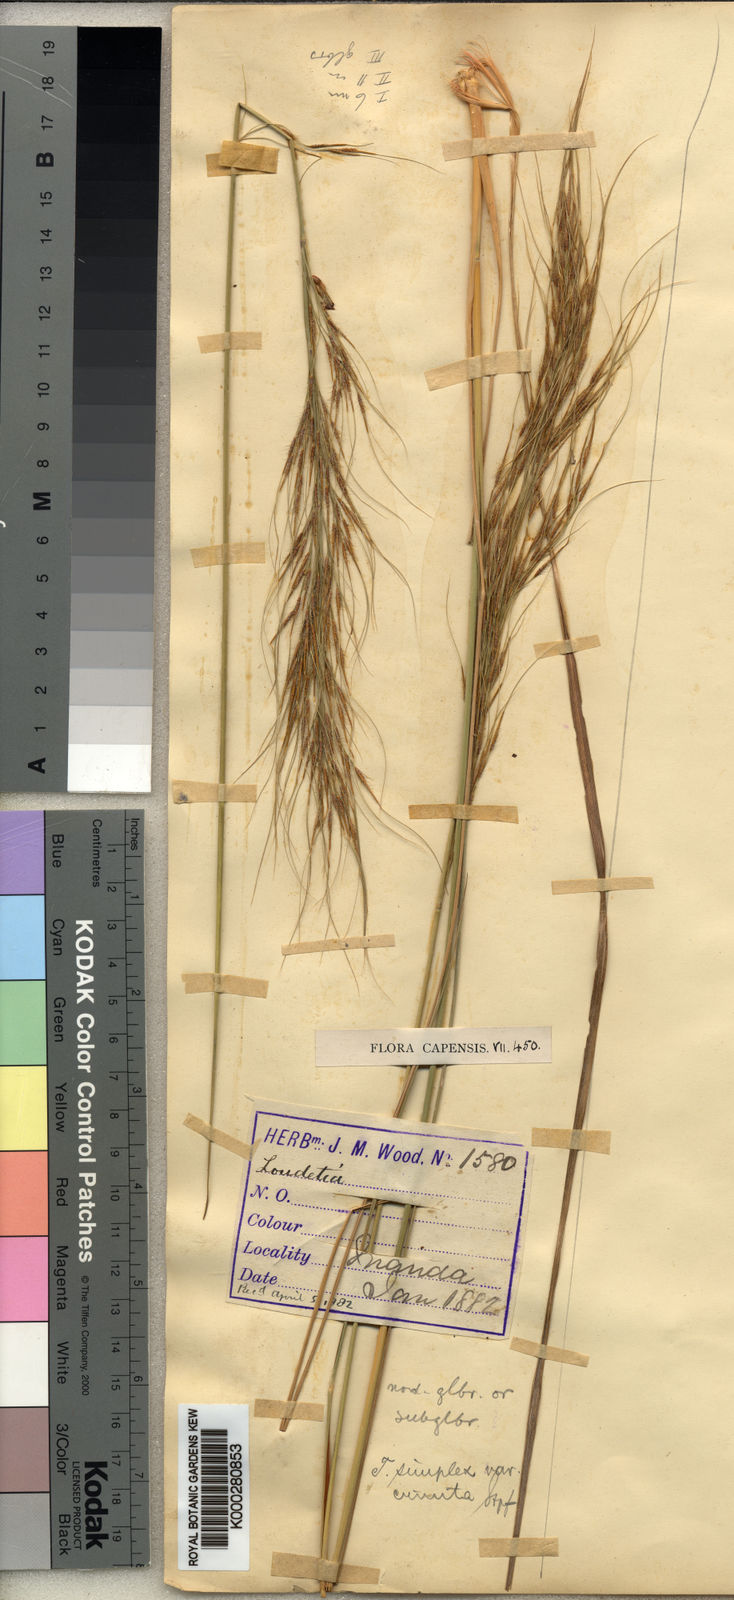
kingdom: Plantae
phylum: Tracheophyta
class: Liliopsida
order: Poales
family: Poaceae
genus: Loudetia
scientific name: Loudetia simplex
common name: Common russet grass
